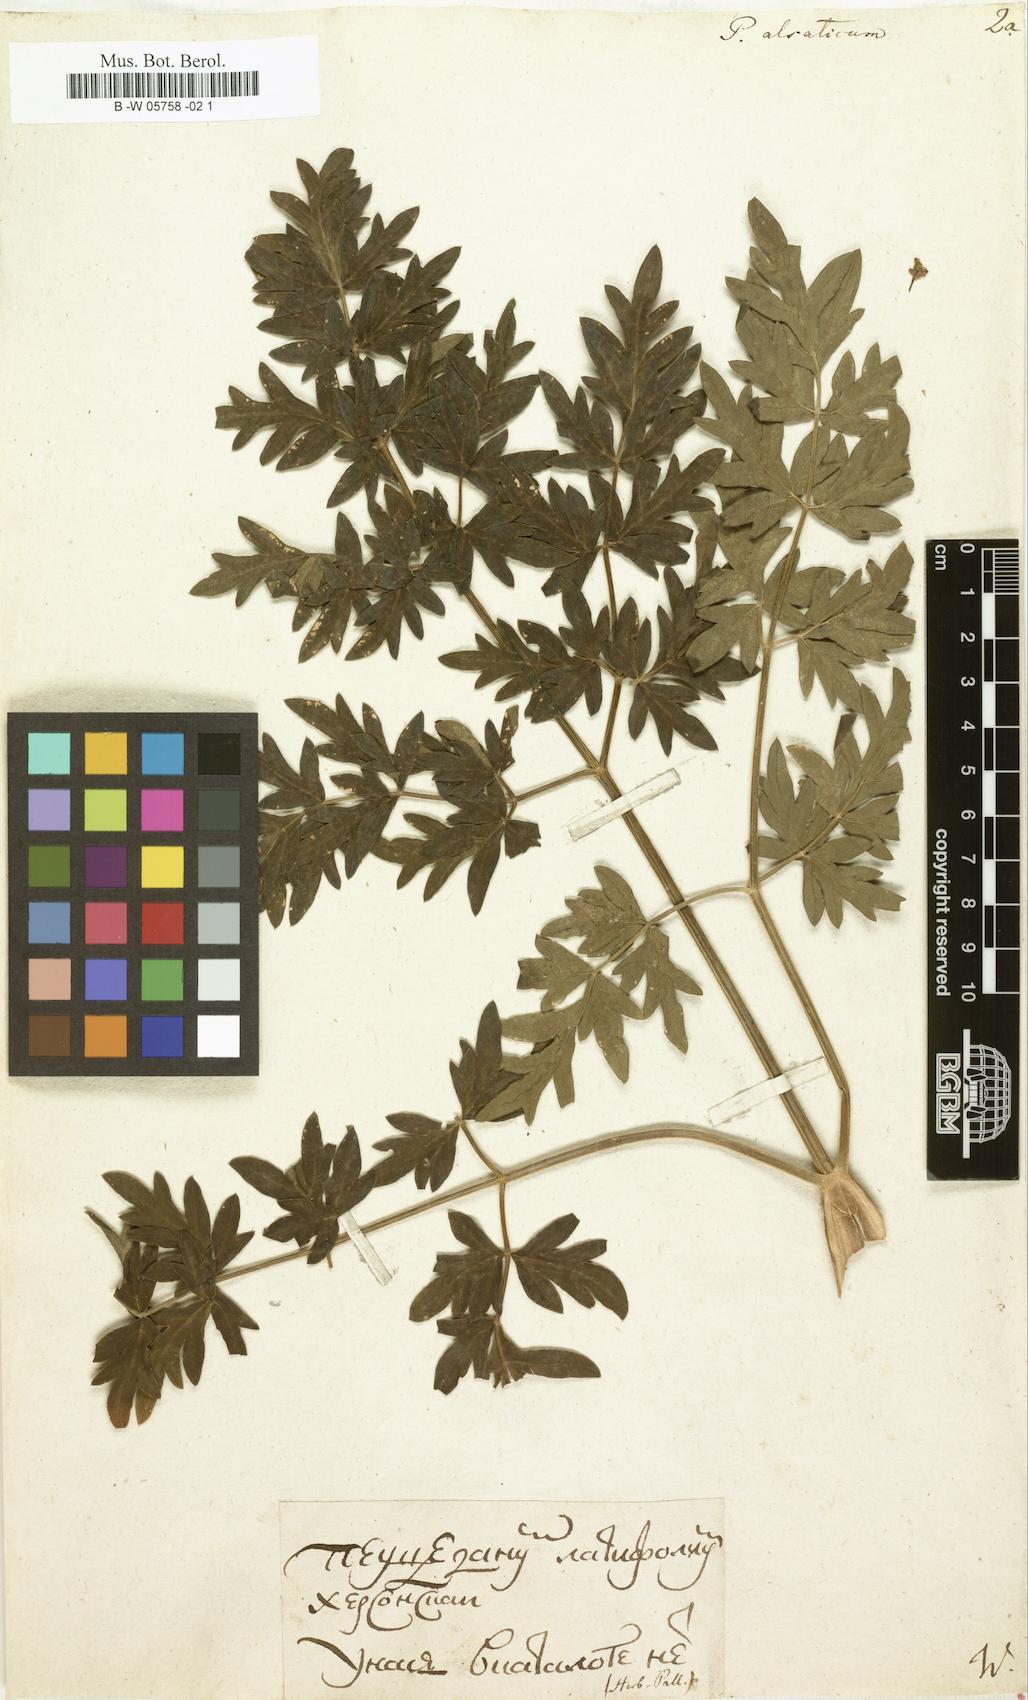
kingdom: Plantae
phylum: Tracheophyta
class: Magnoliopsida
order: Apiales
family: Apiaceae
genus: Xanthoselinum
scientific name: Xanthoselinum alsaticum
